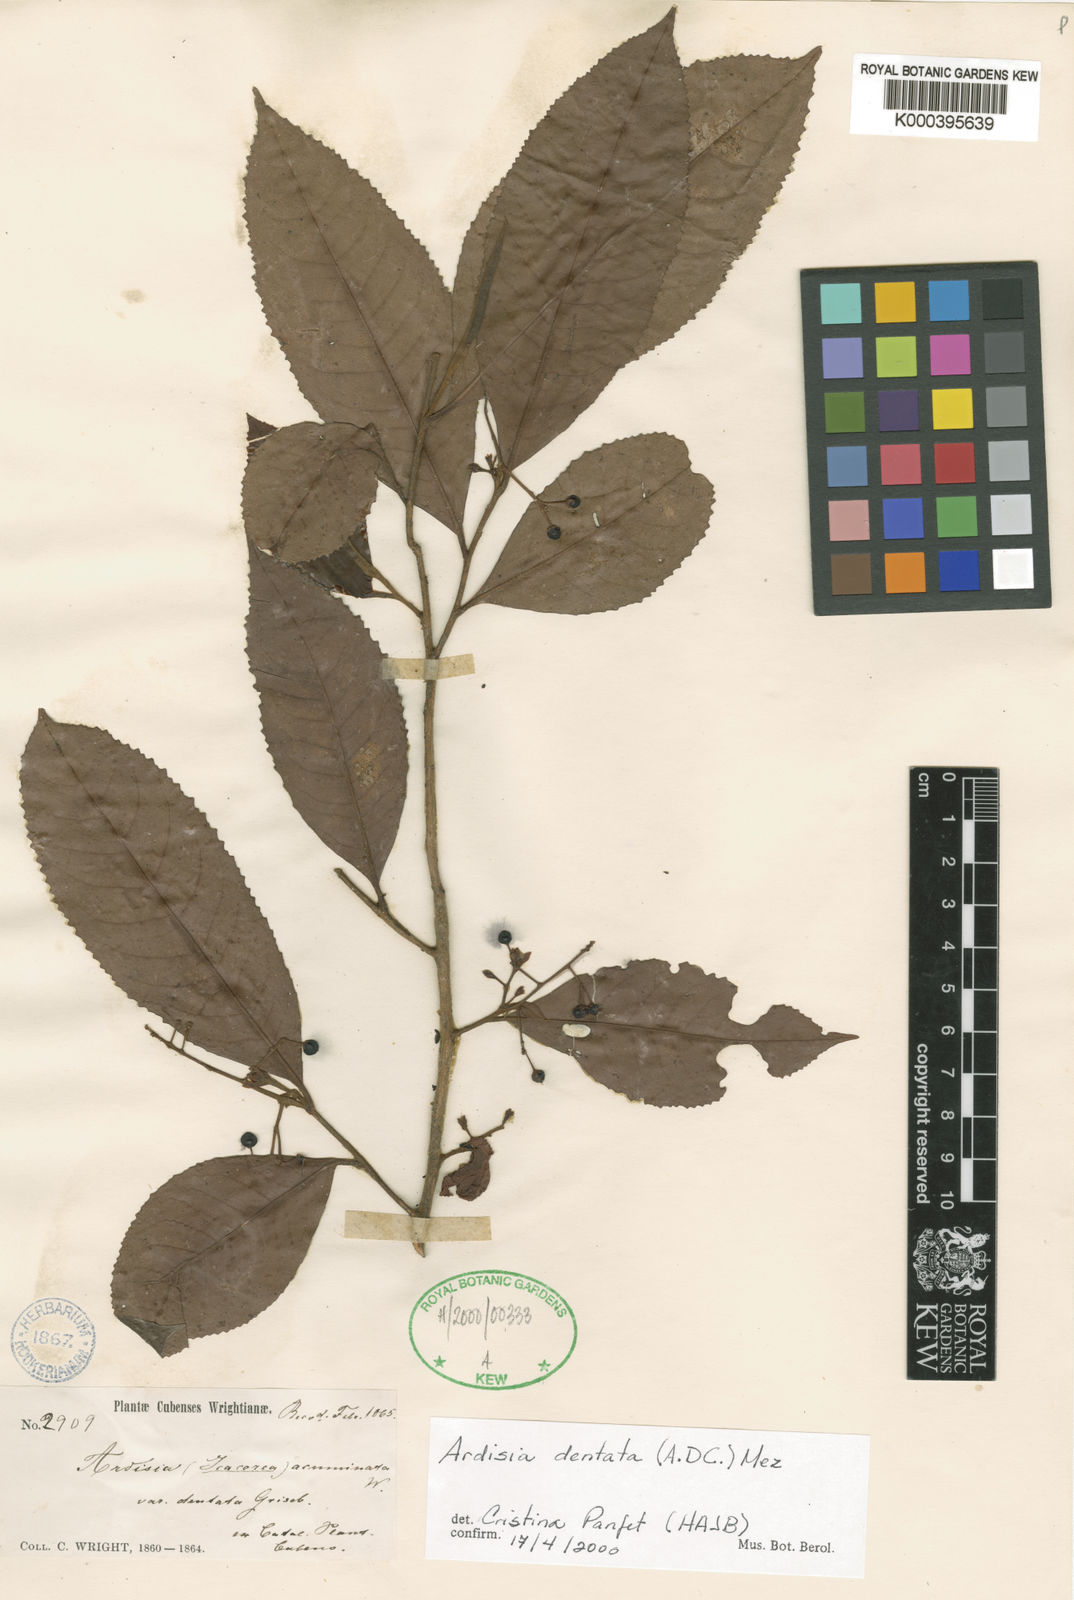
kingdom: Plantae
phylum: Tracheophyta
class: Magnoliopsida
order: Ericales
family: Primulaceae
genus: Ardisia
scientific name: Ardisia dentata
